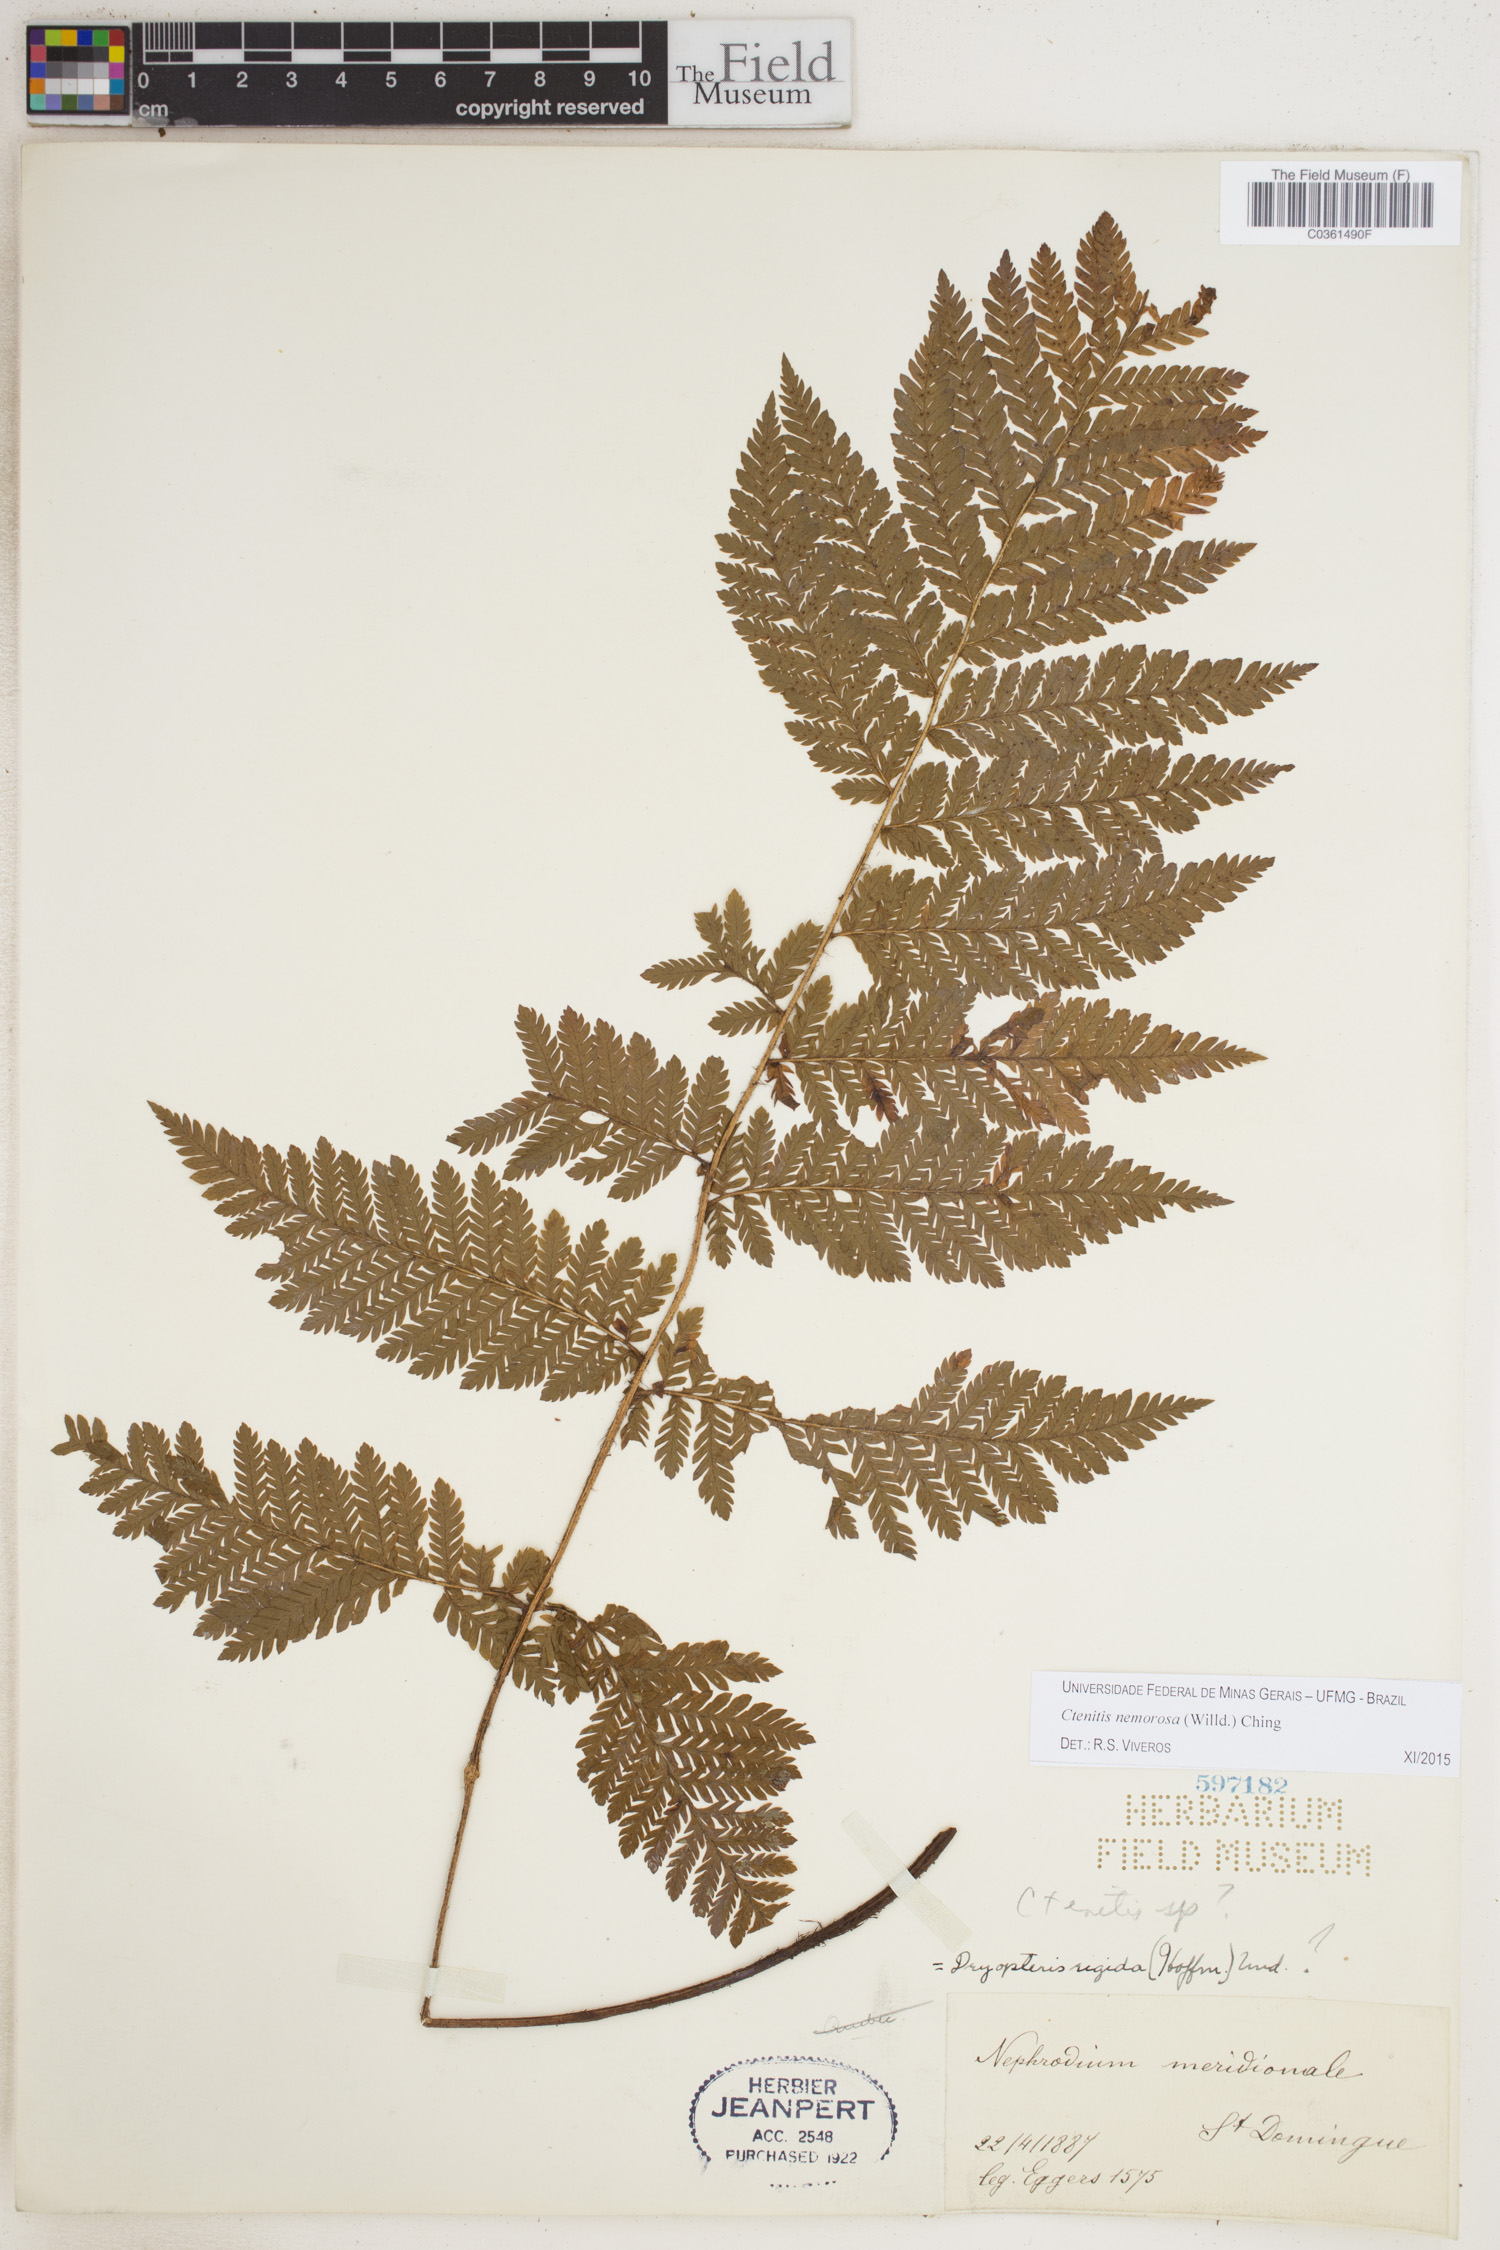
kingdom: Plantae
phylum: Tracheophyta
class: Polypodiopsida
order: Polypodiales
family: Dryopteridaceae
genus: Ctenitis
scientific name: Ctenitis nemorosa
